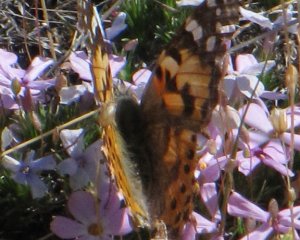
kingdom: Animalia
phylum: Arthropoda
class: Insecta
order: Lepidoptera
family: Nymphalidae
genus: Vanessa
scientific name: Vanessa cardui
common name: Painted Lady
